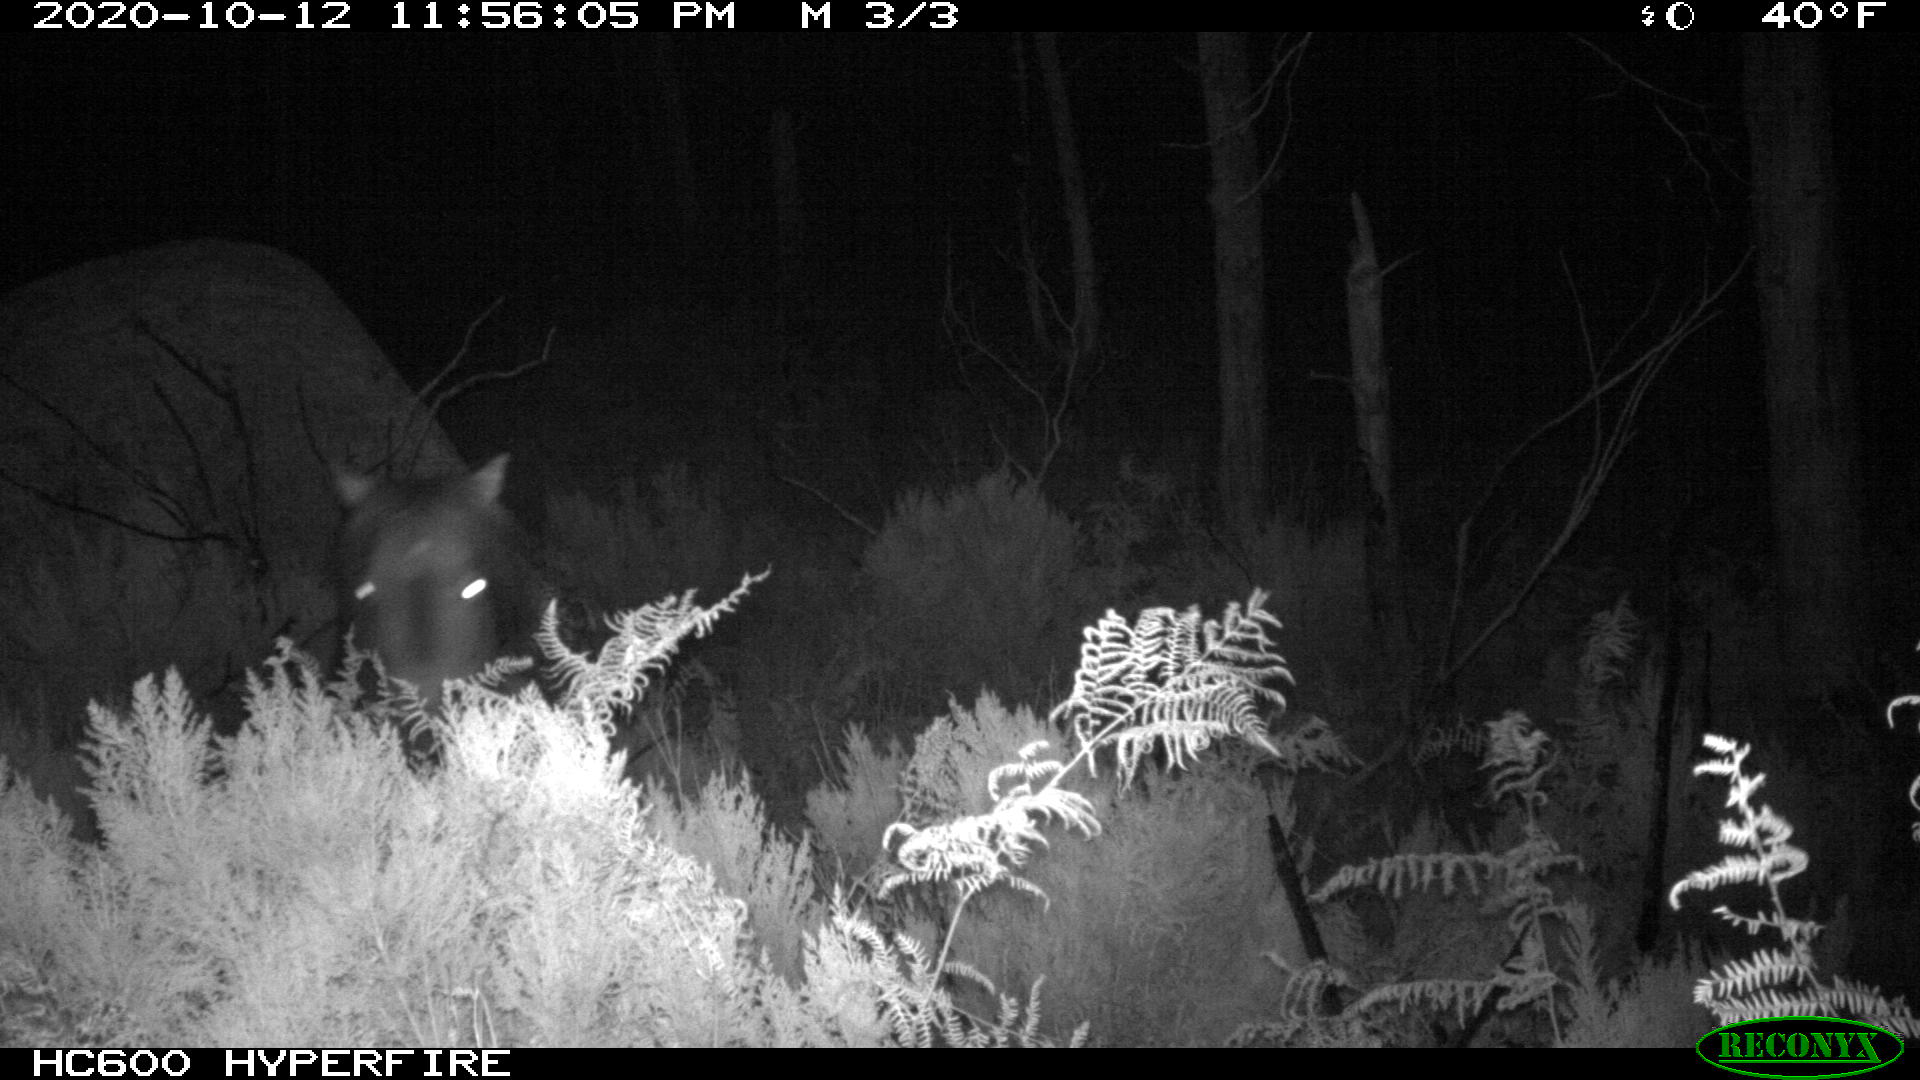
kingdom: Animalia
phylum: Chordata
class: Mammalia
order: Perissodactyla
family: Equidae
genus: Equus
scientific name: Equus caballus
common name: Horse
